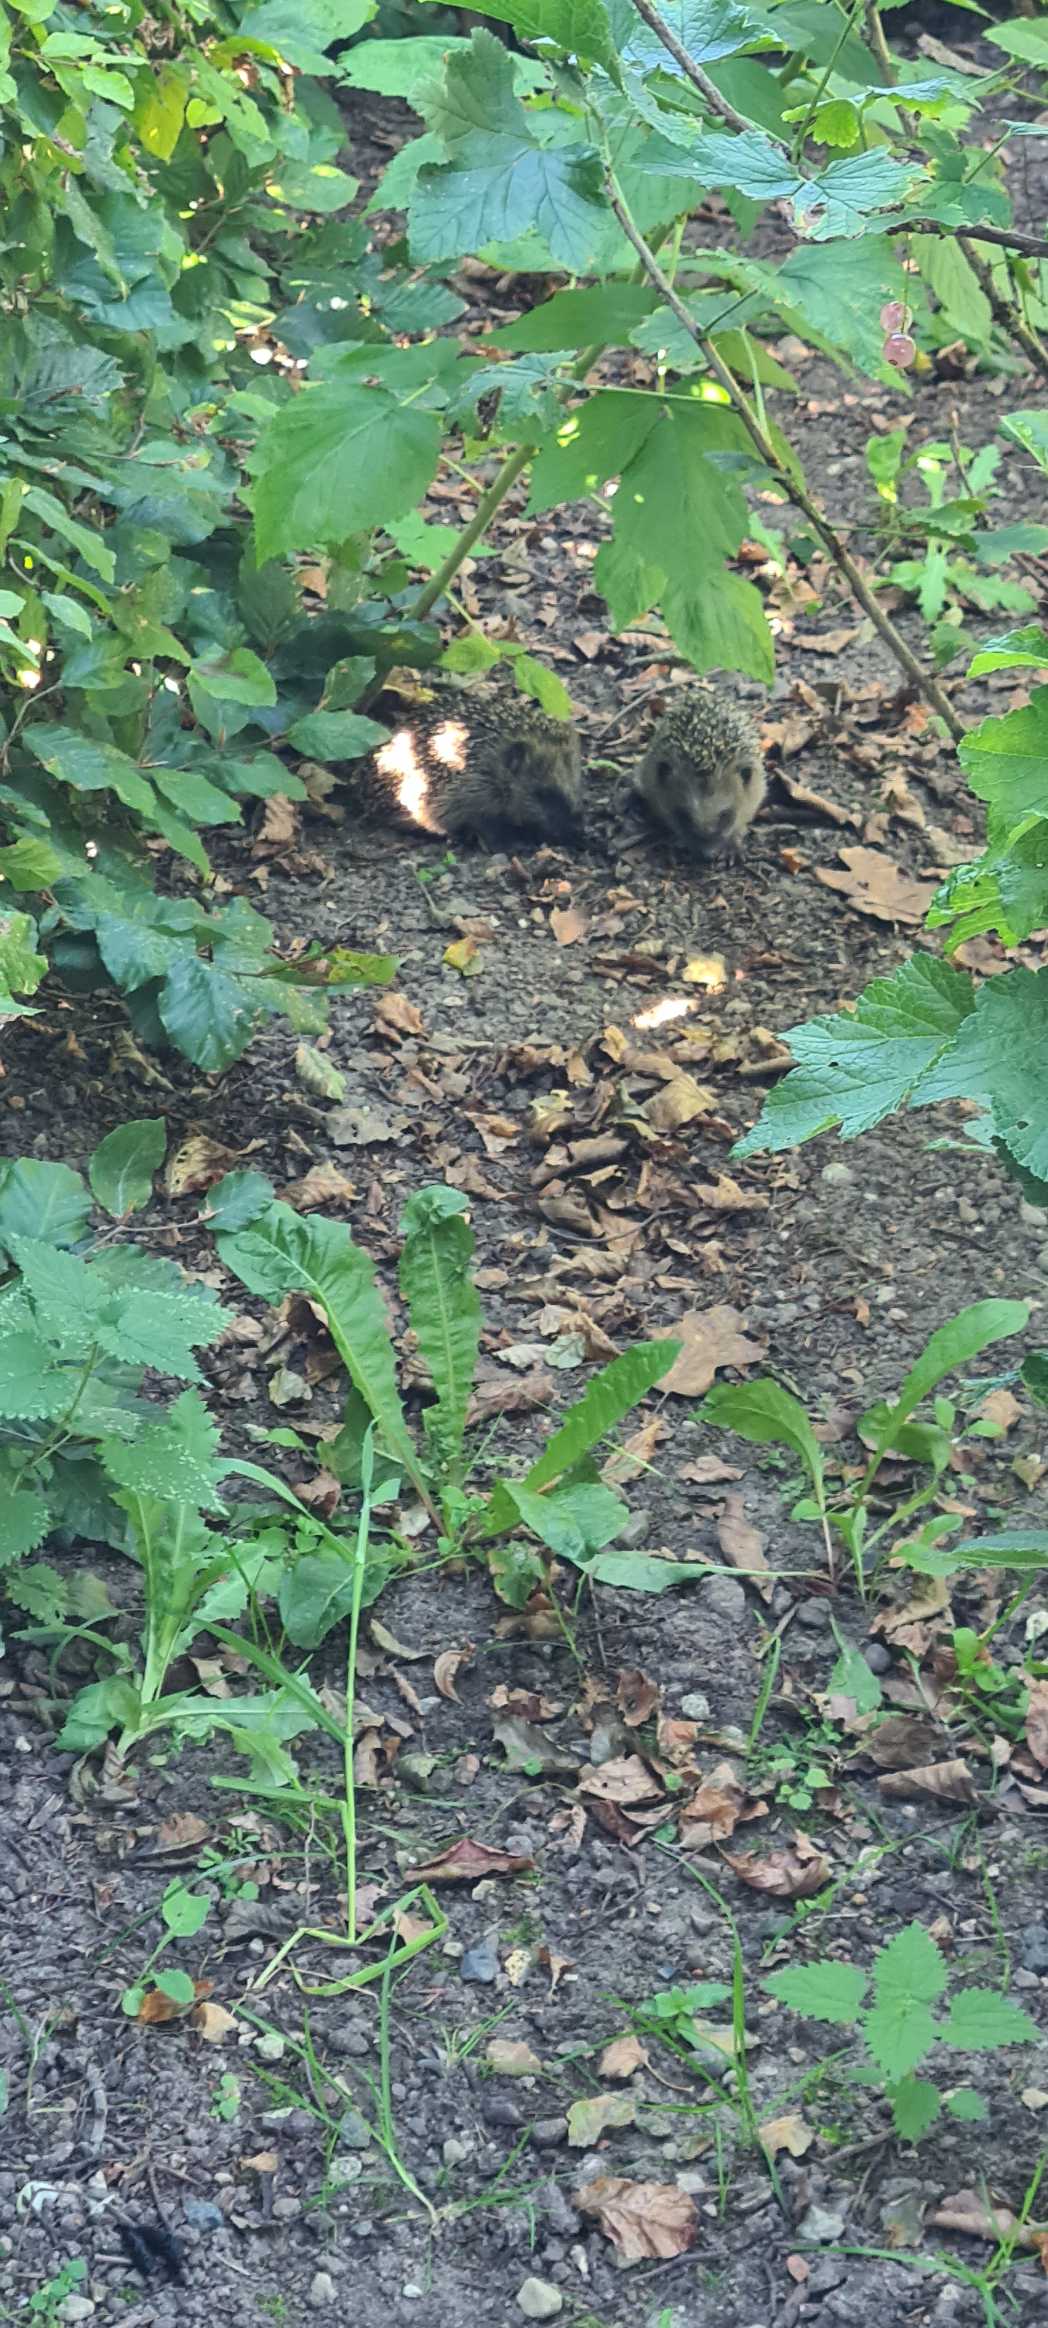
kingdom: Animalia
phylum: Chordata
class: Mammalia
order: Erinaceomorpha
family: Erinaceidae
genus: Erinaceus
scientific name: Erinaceus europaeus
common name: Pindsvin
